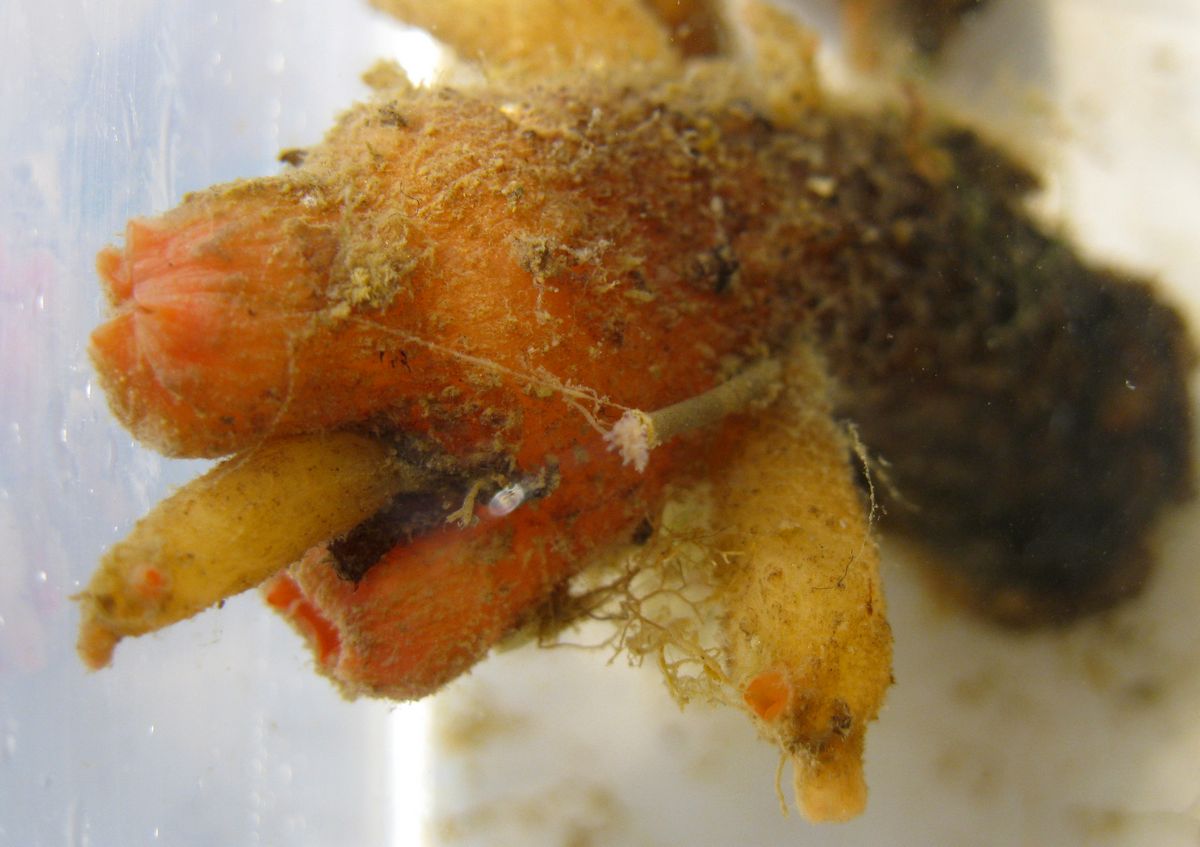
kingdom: Animalia
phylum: Chordata
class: Ascidiacea
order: Stolidobranchia
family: Styelidae
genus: Styela
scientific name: Styela rustica
